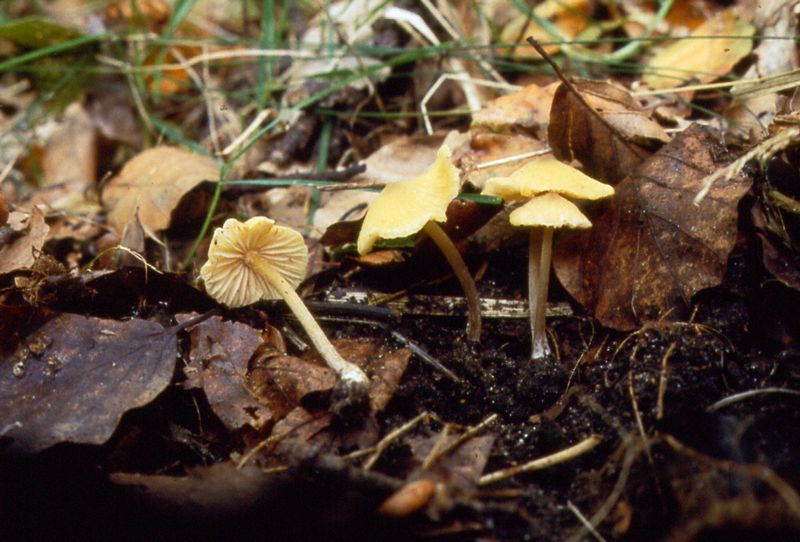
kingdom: Fungi
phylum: Basidiomycota
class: Agaricomycetes
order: Agaricales
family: Entolomataceae
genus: Entoloma
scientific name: Entoloma pleopodium
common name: duftende rødblad
